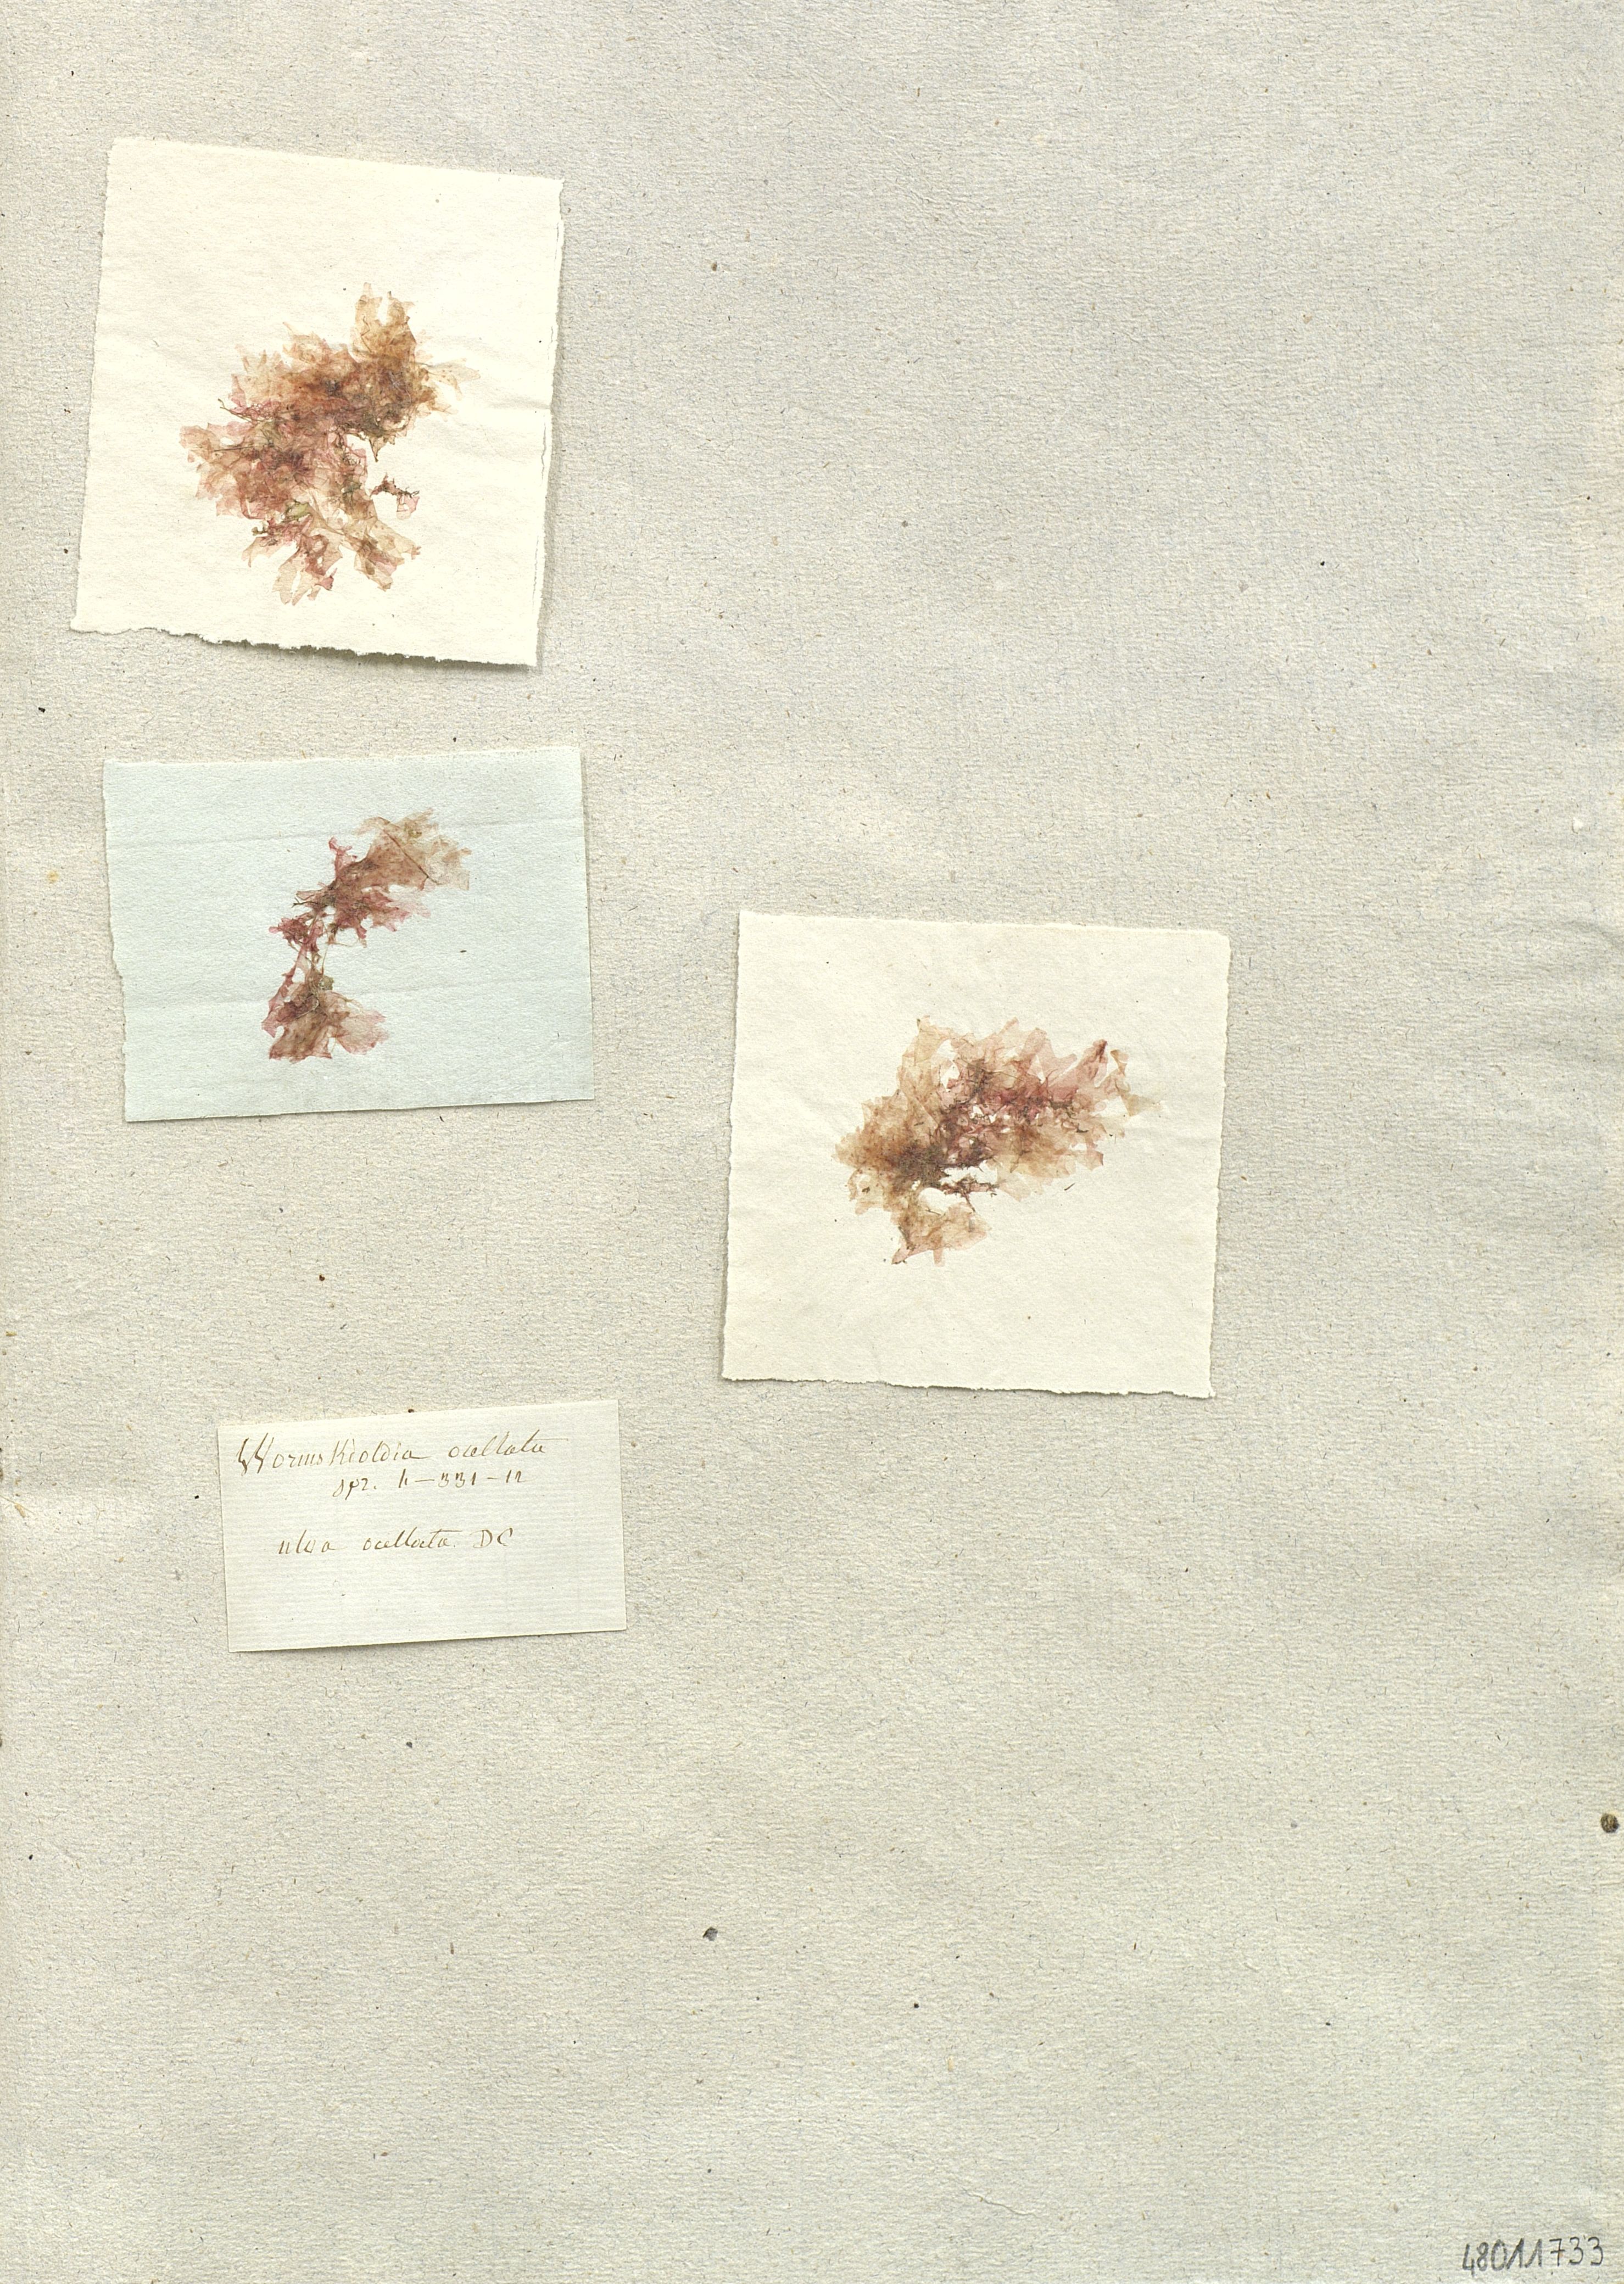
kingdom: Plantae
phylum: Chlorophyta
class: Ulvophyceae
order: Ulvales
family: Ulvaceae
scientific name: Ulvaceae
